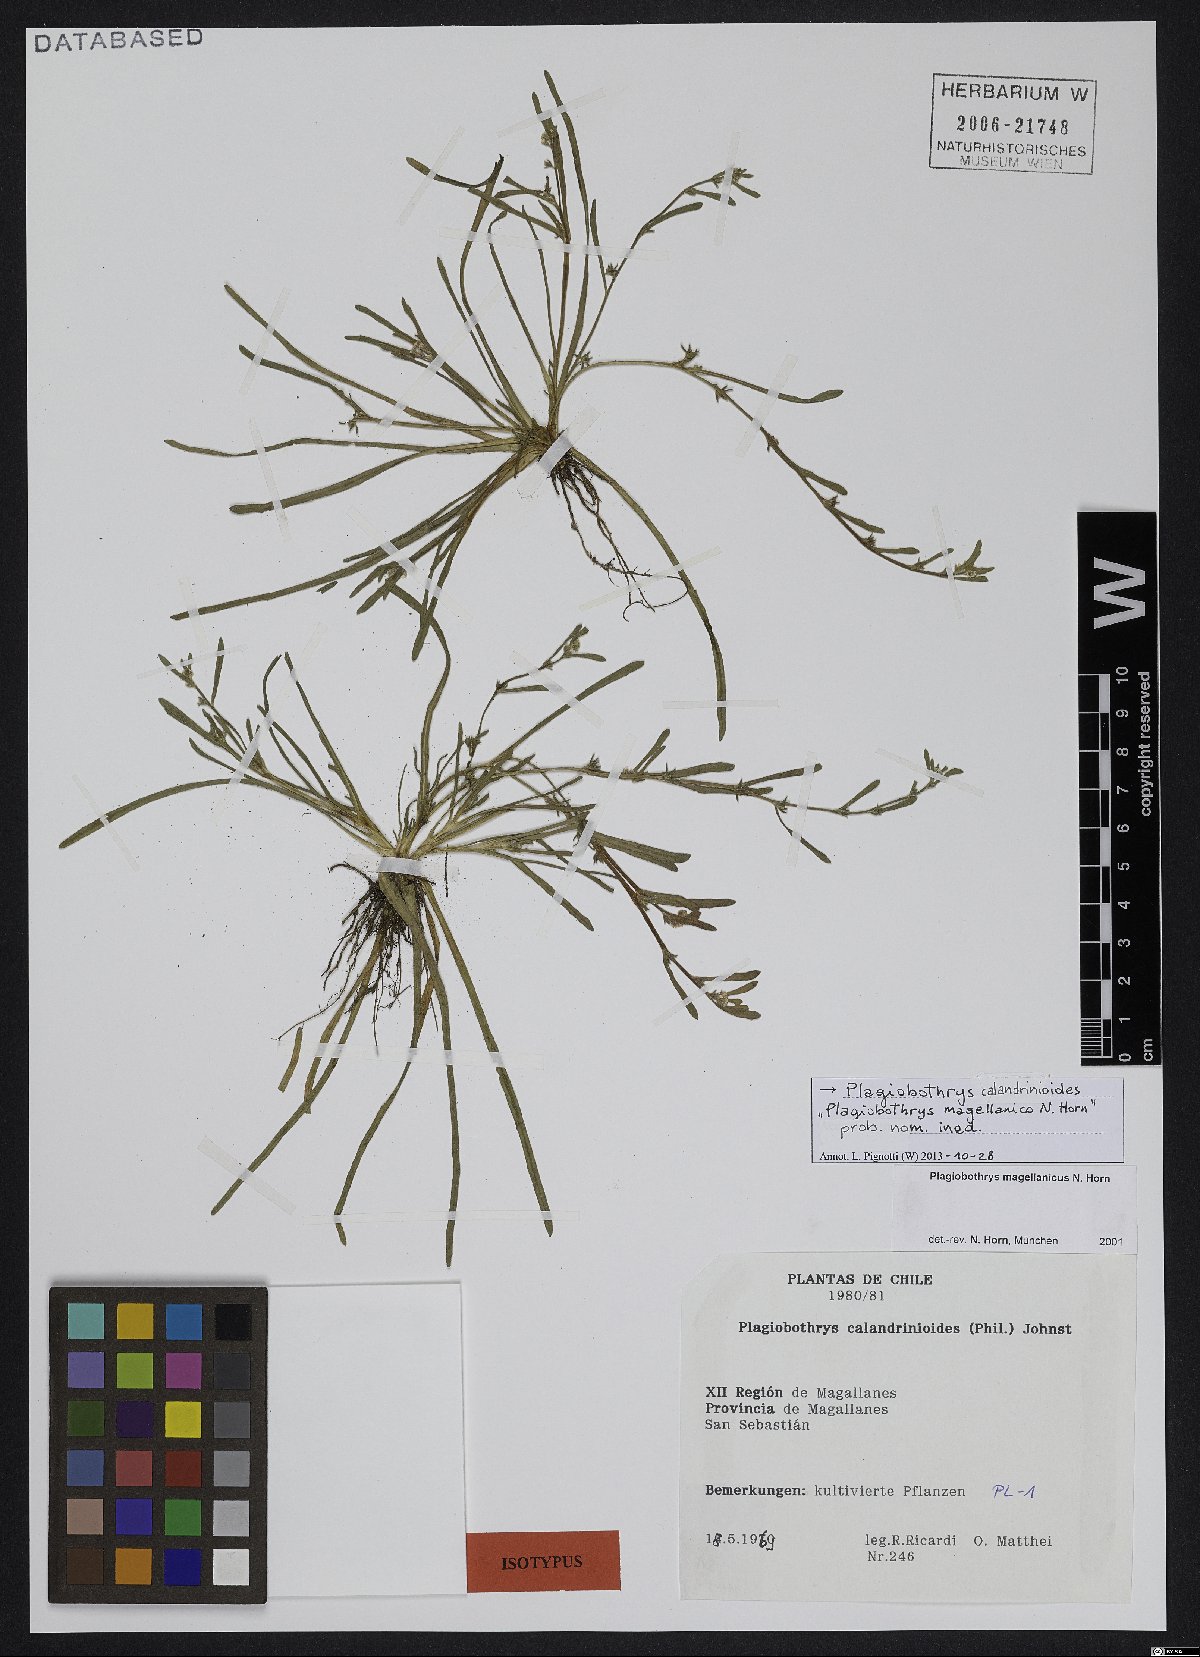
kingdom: Plantae
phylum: Tracheophyta
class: Magnoliopsida
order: Boraginales
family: Boraginaceae
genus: Plagiobothrys
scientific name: Plagiobothrys calandrinioides
